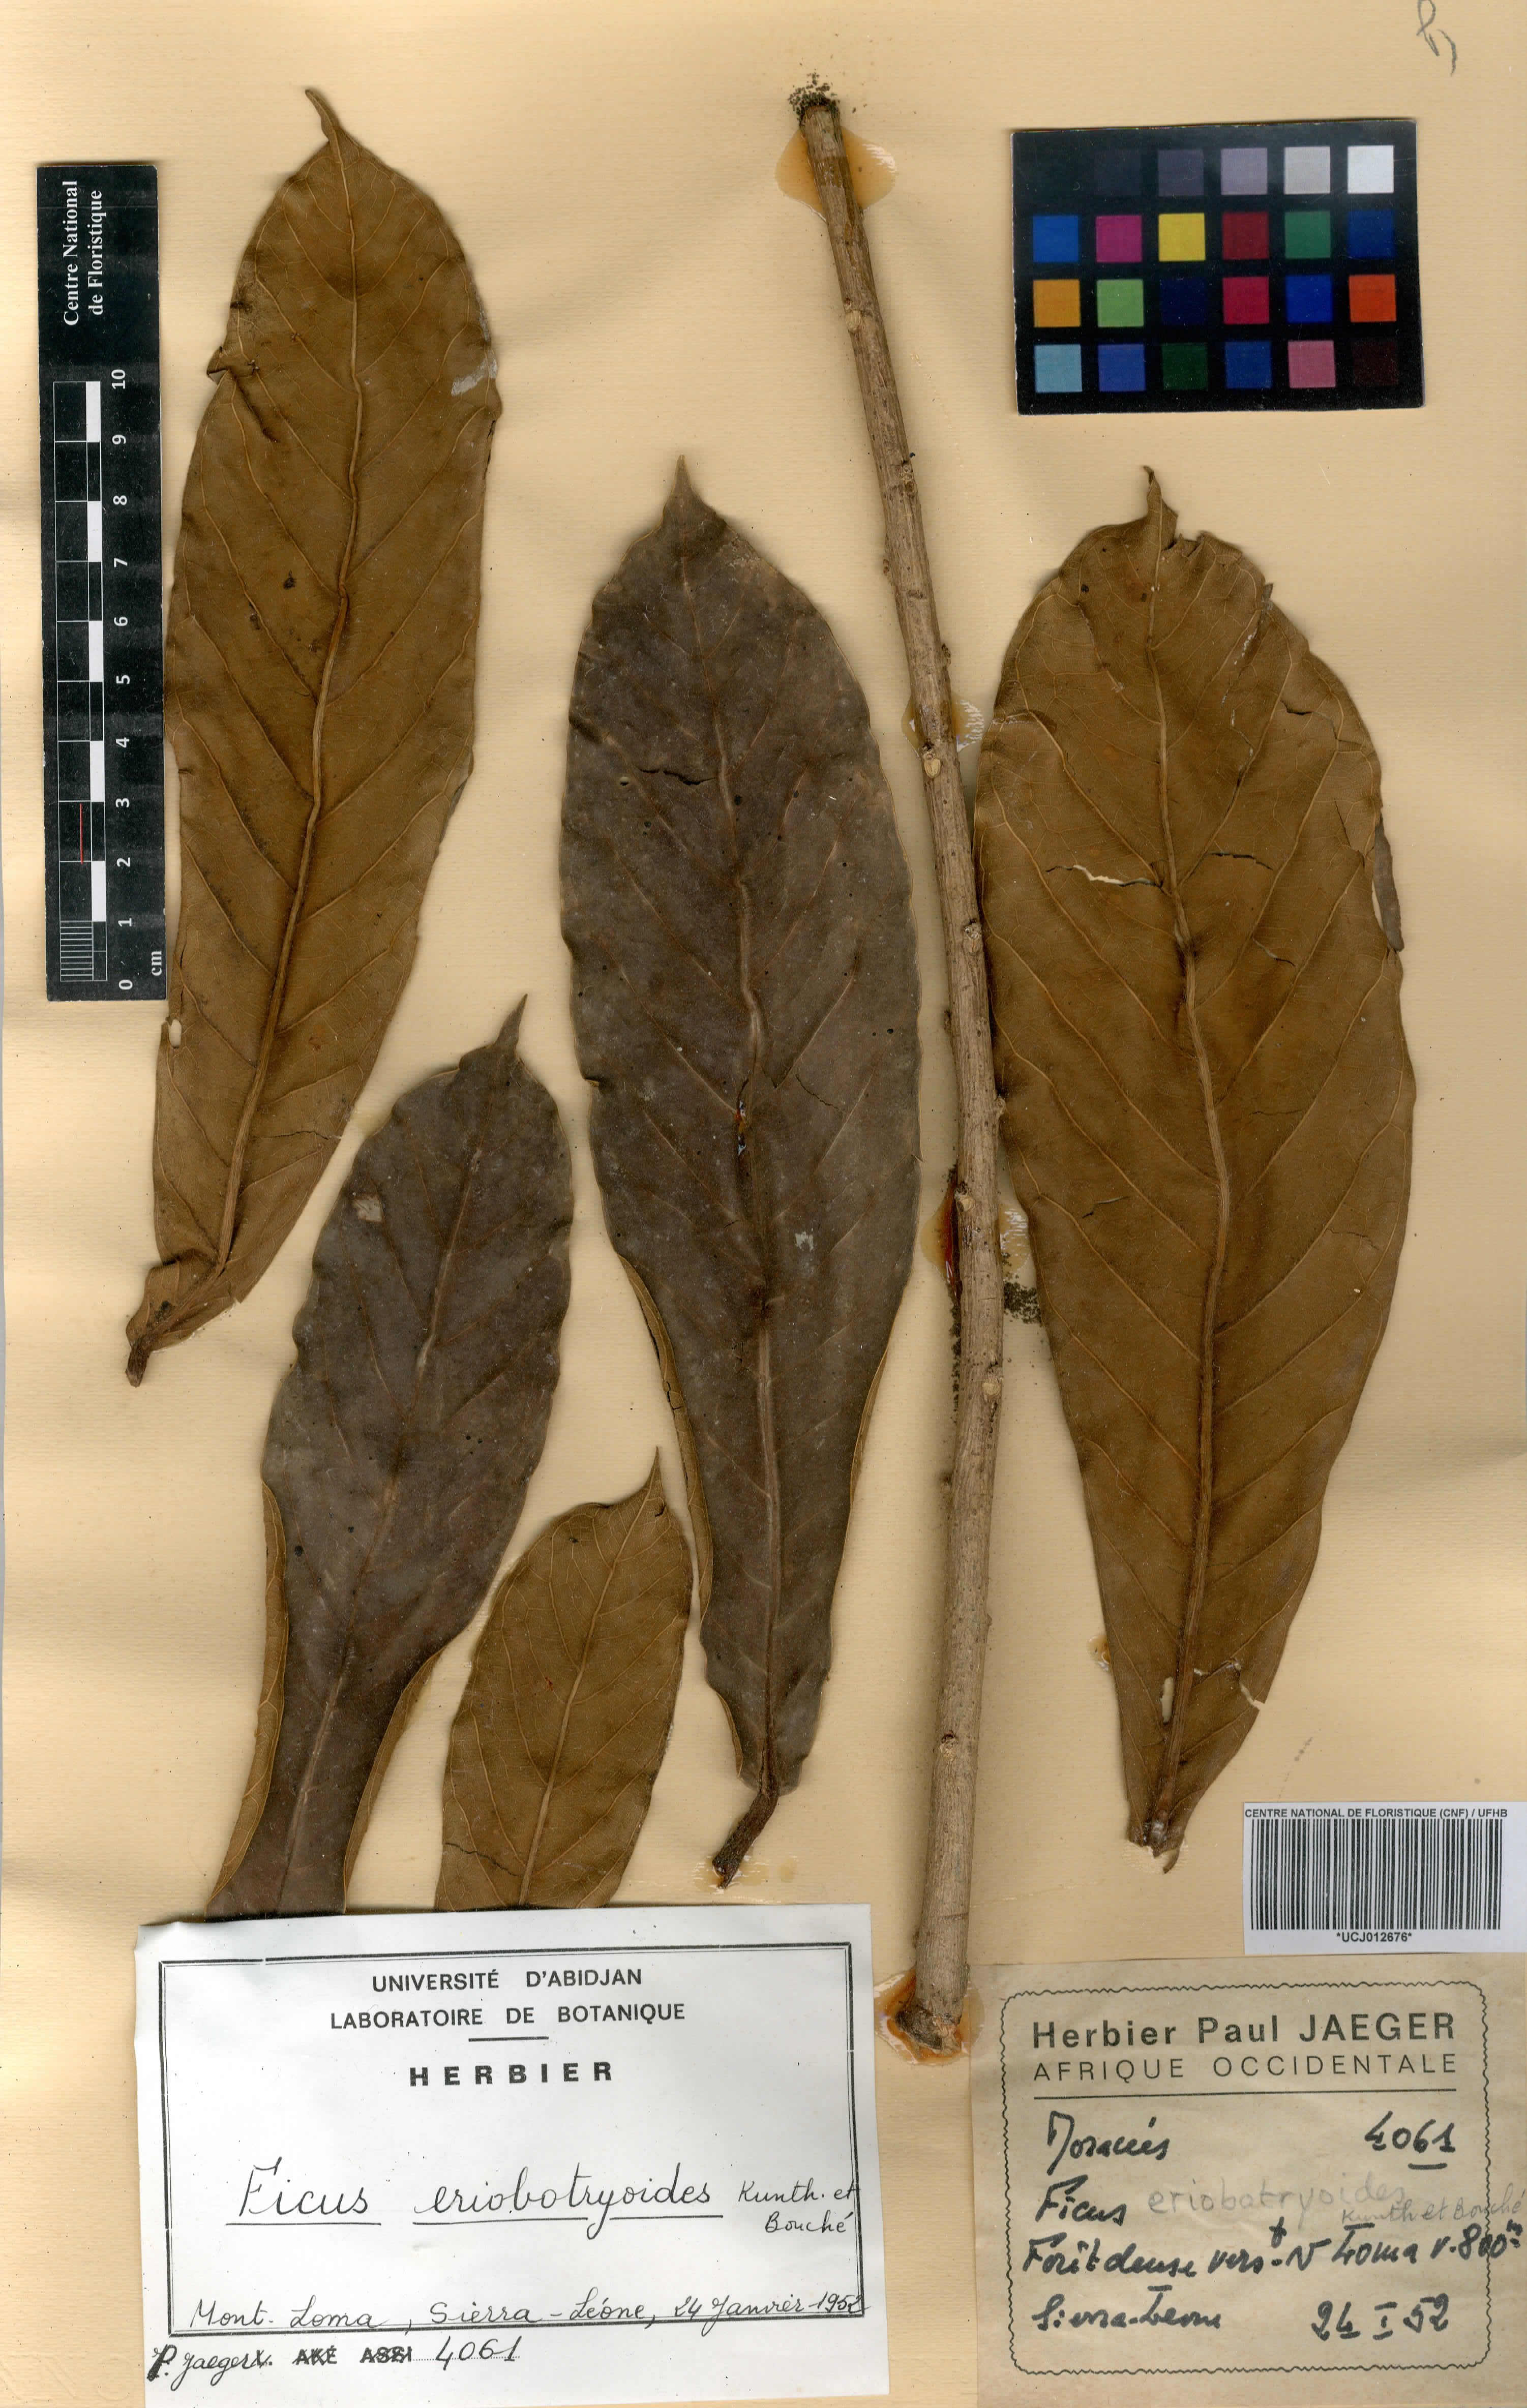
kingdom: Plantae
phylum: Tracheophyta
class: Magnoliopsida
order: Rosales
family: Moraceae
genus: Ficus
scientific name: Ficus
